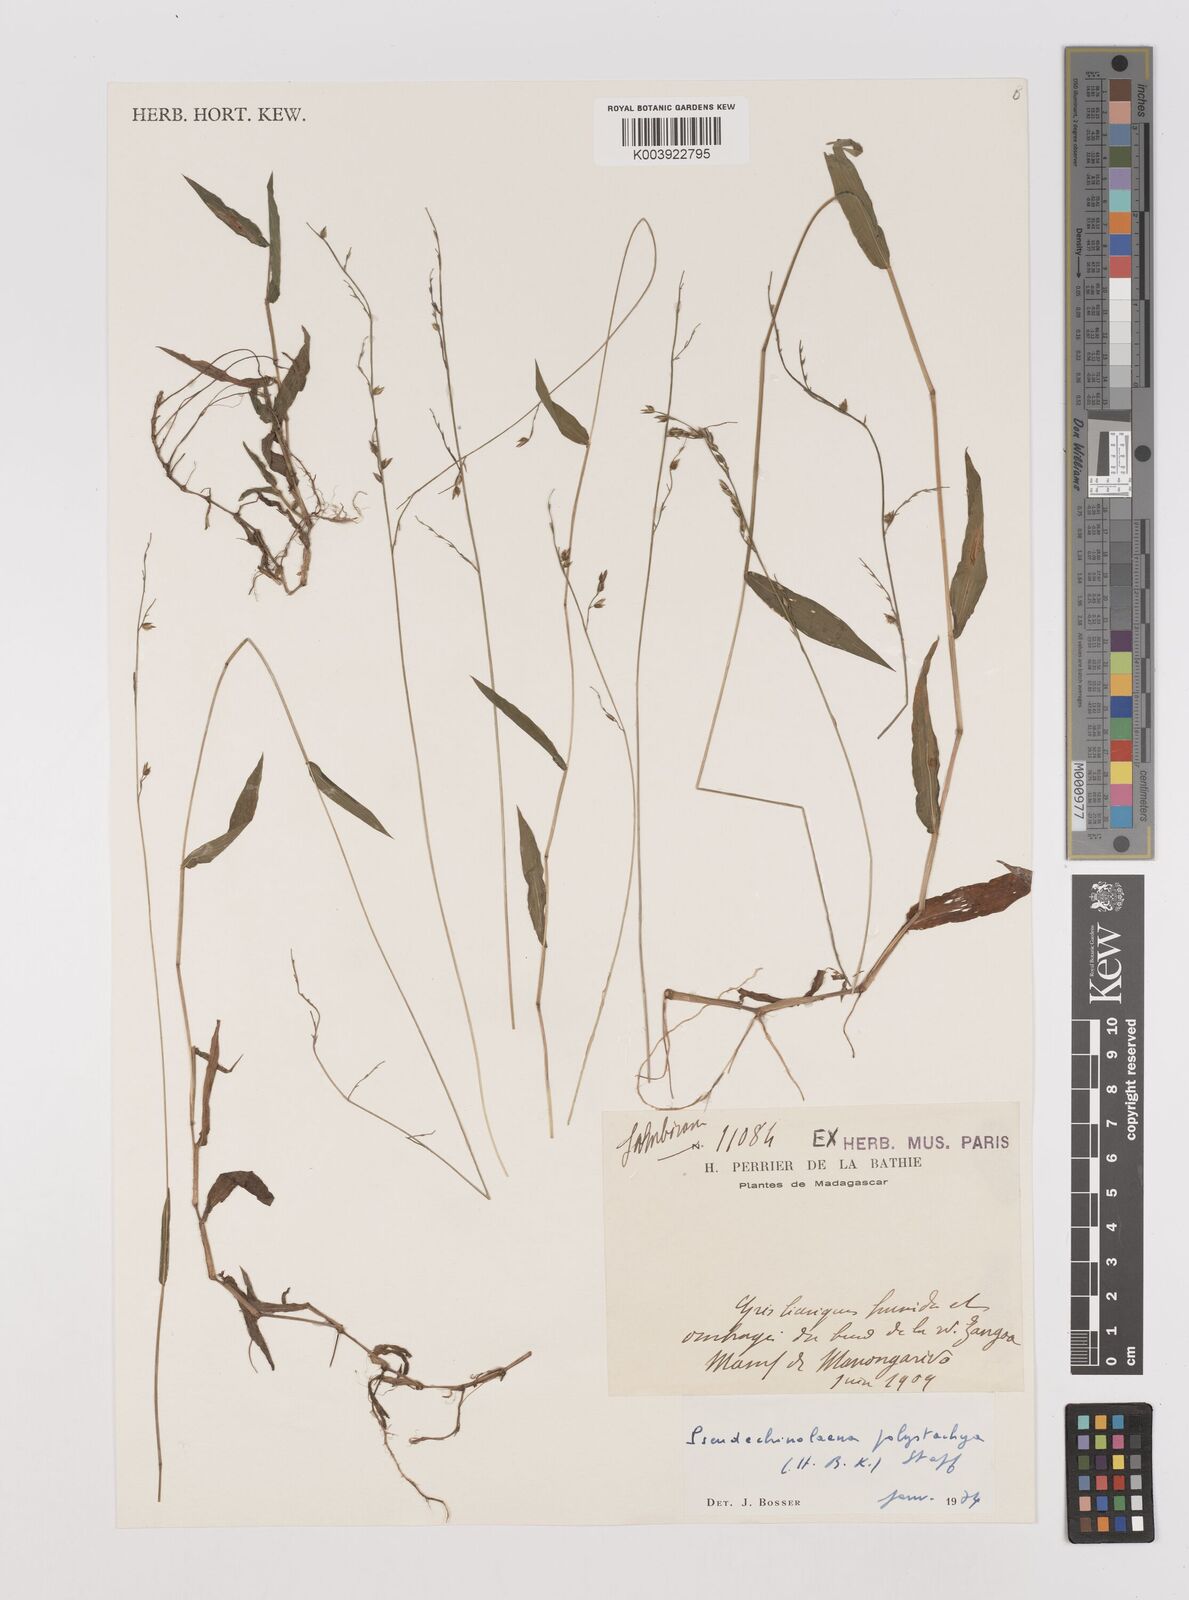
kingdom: Plantae
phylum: Tracheophyta
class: Liliopsida
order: Poales
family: Poaceae
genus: Pseudechinolaena
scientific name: Pseudechinolaena polystachya
